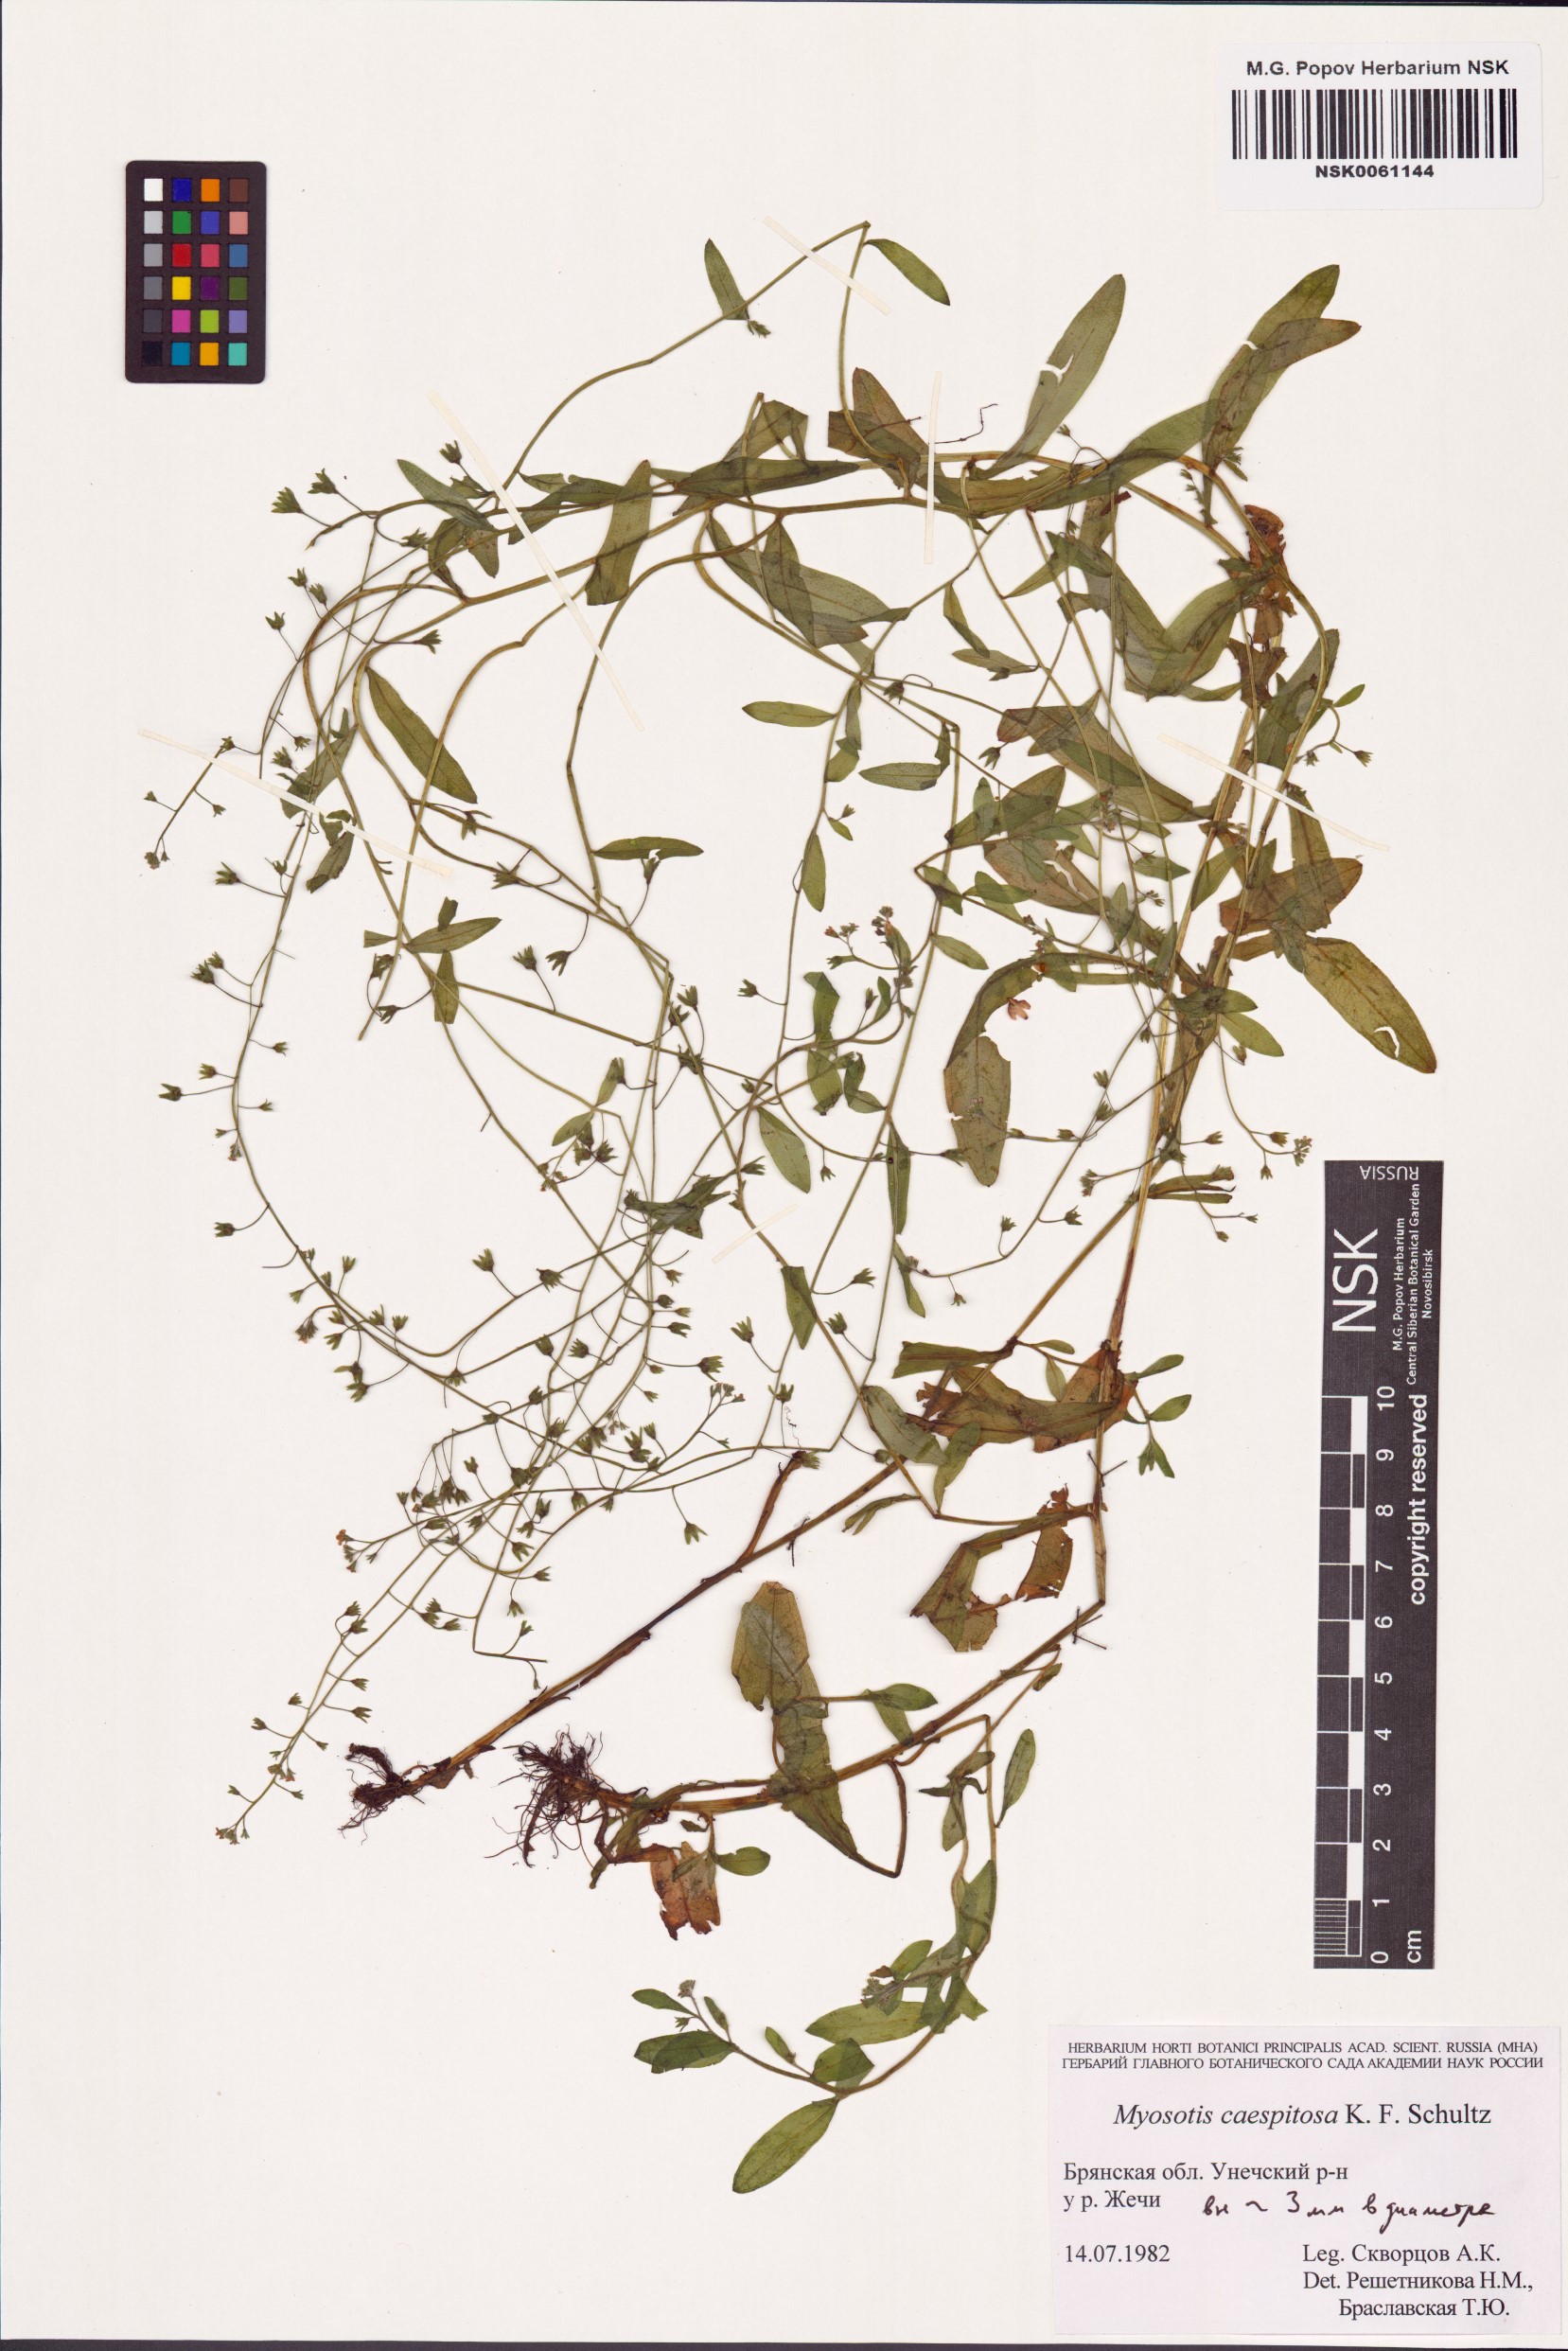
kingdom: Plantae
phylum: Tracheophyta
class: Magnoliopsida
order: Boraginales
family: Boraginaceae
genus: Myosotis
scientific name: Myosotis laxa
